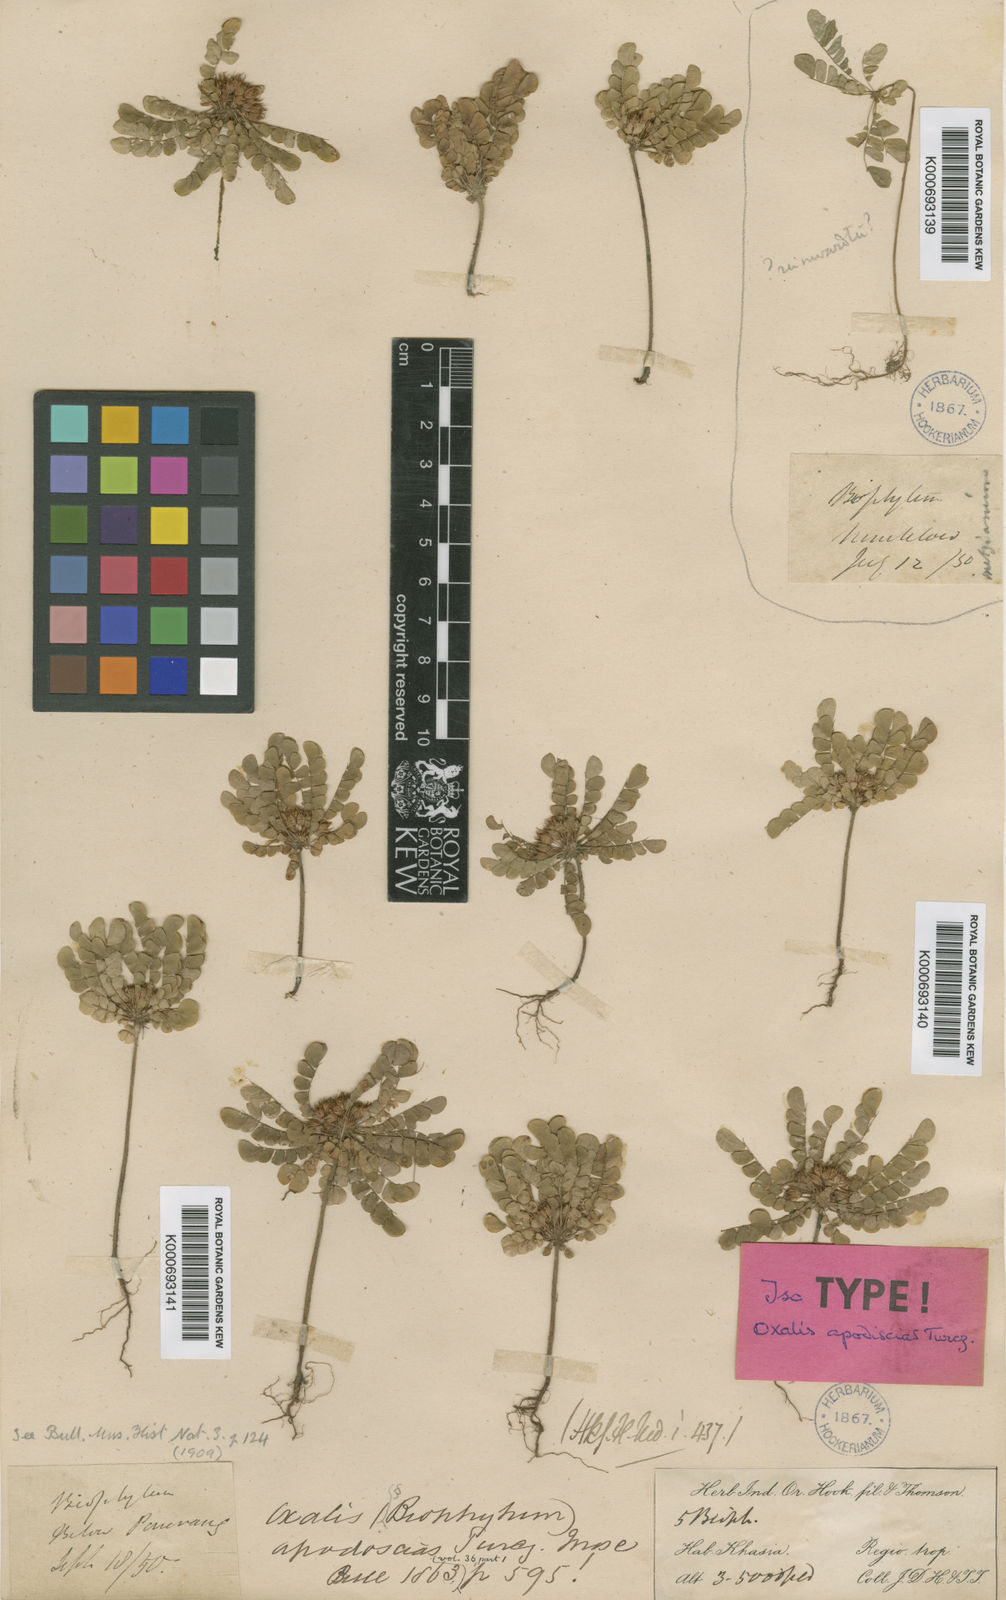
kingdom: Plantae
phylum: Tracheophyta
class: Magnoliopsida
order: Oxalidales
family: Oxalidaceae
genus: Biophytum
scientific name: Biophytum umbraculum
